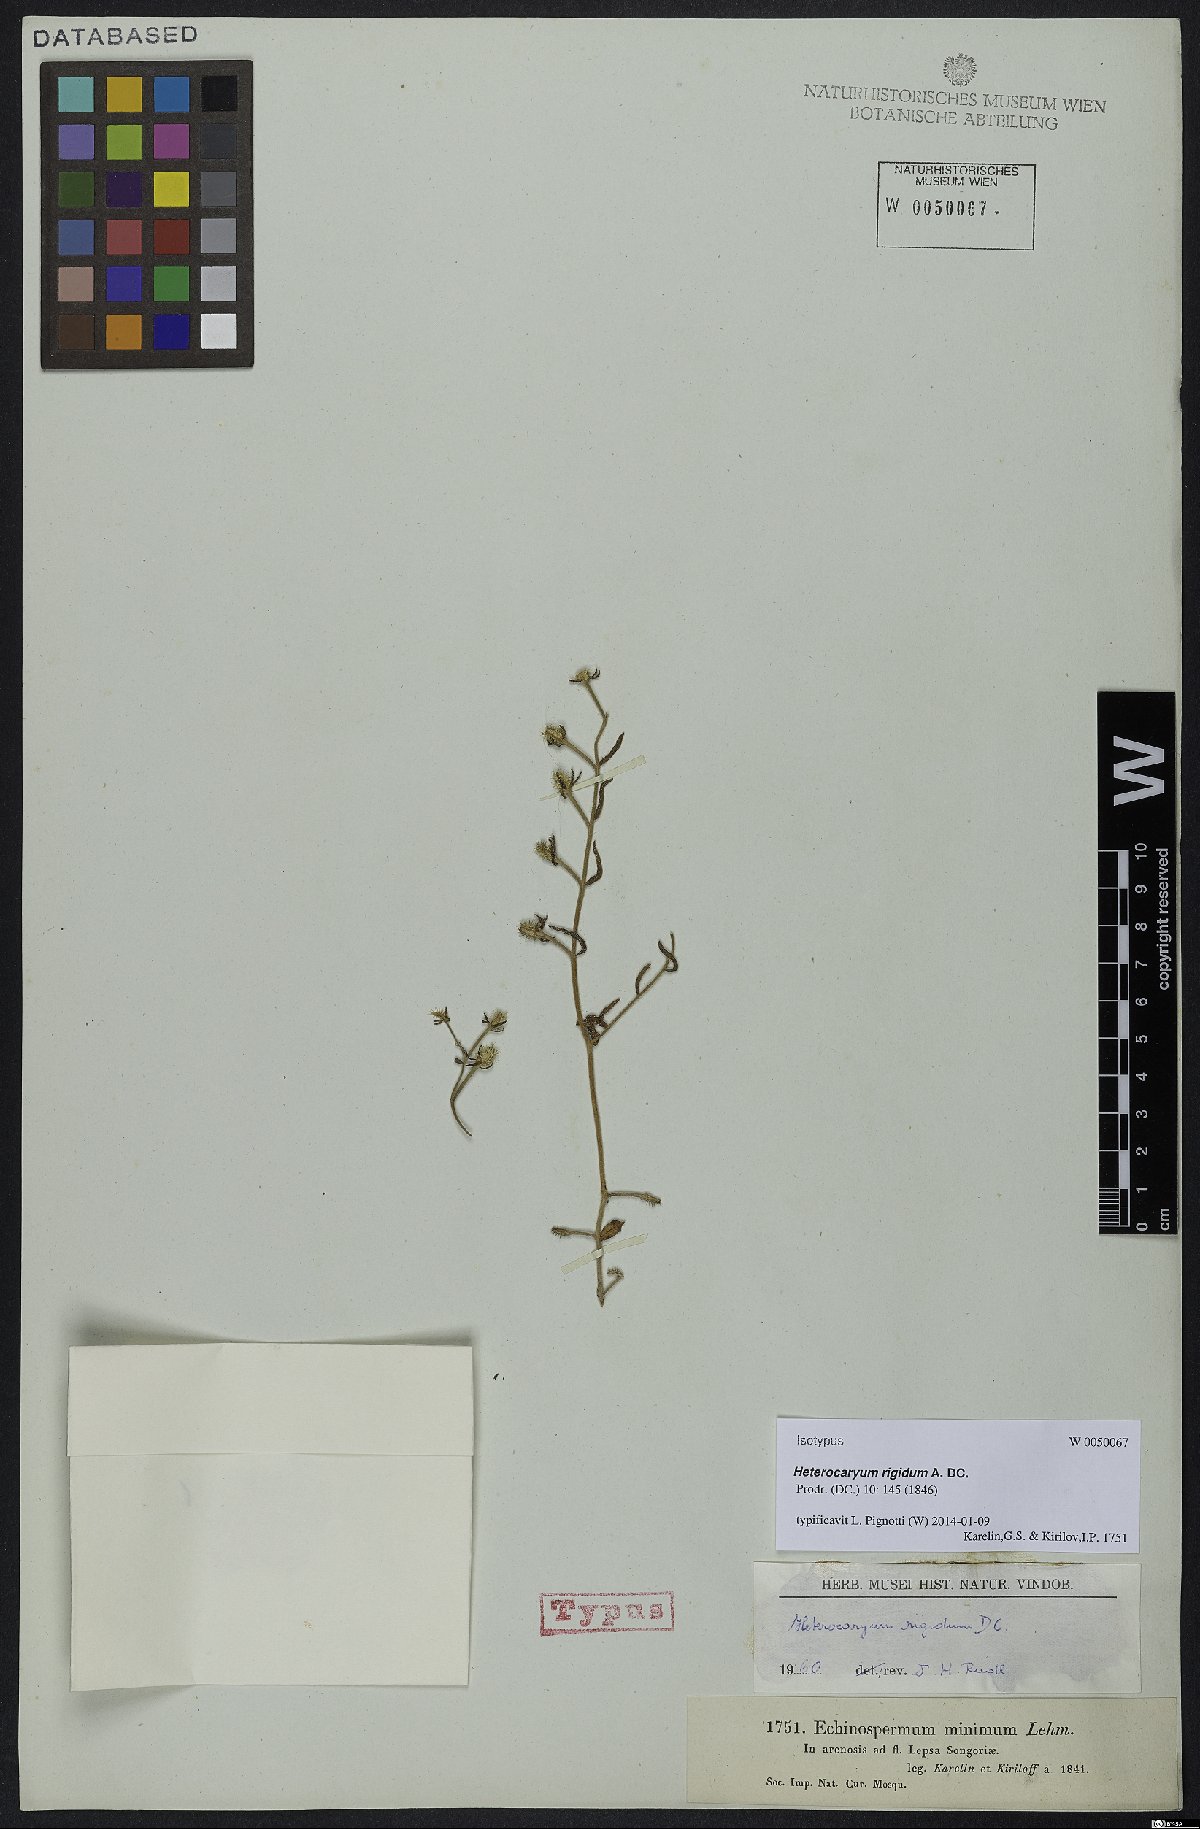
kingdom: Plantae
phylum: Tracheophyta
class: Magnoliopsida
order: Boraginales
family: Boraginaceae
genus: Pseudoheterocaryum
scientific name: Pseudoheterocaryum rigidum
